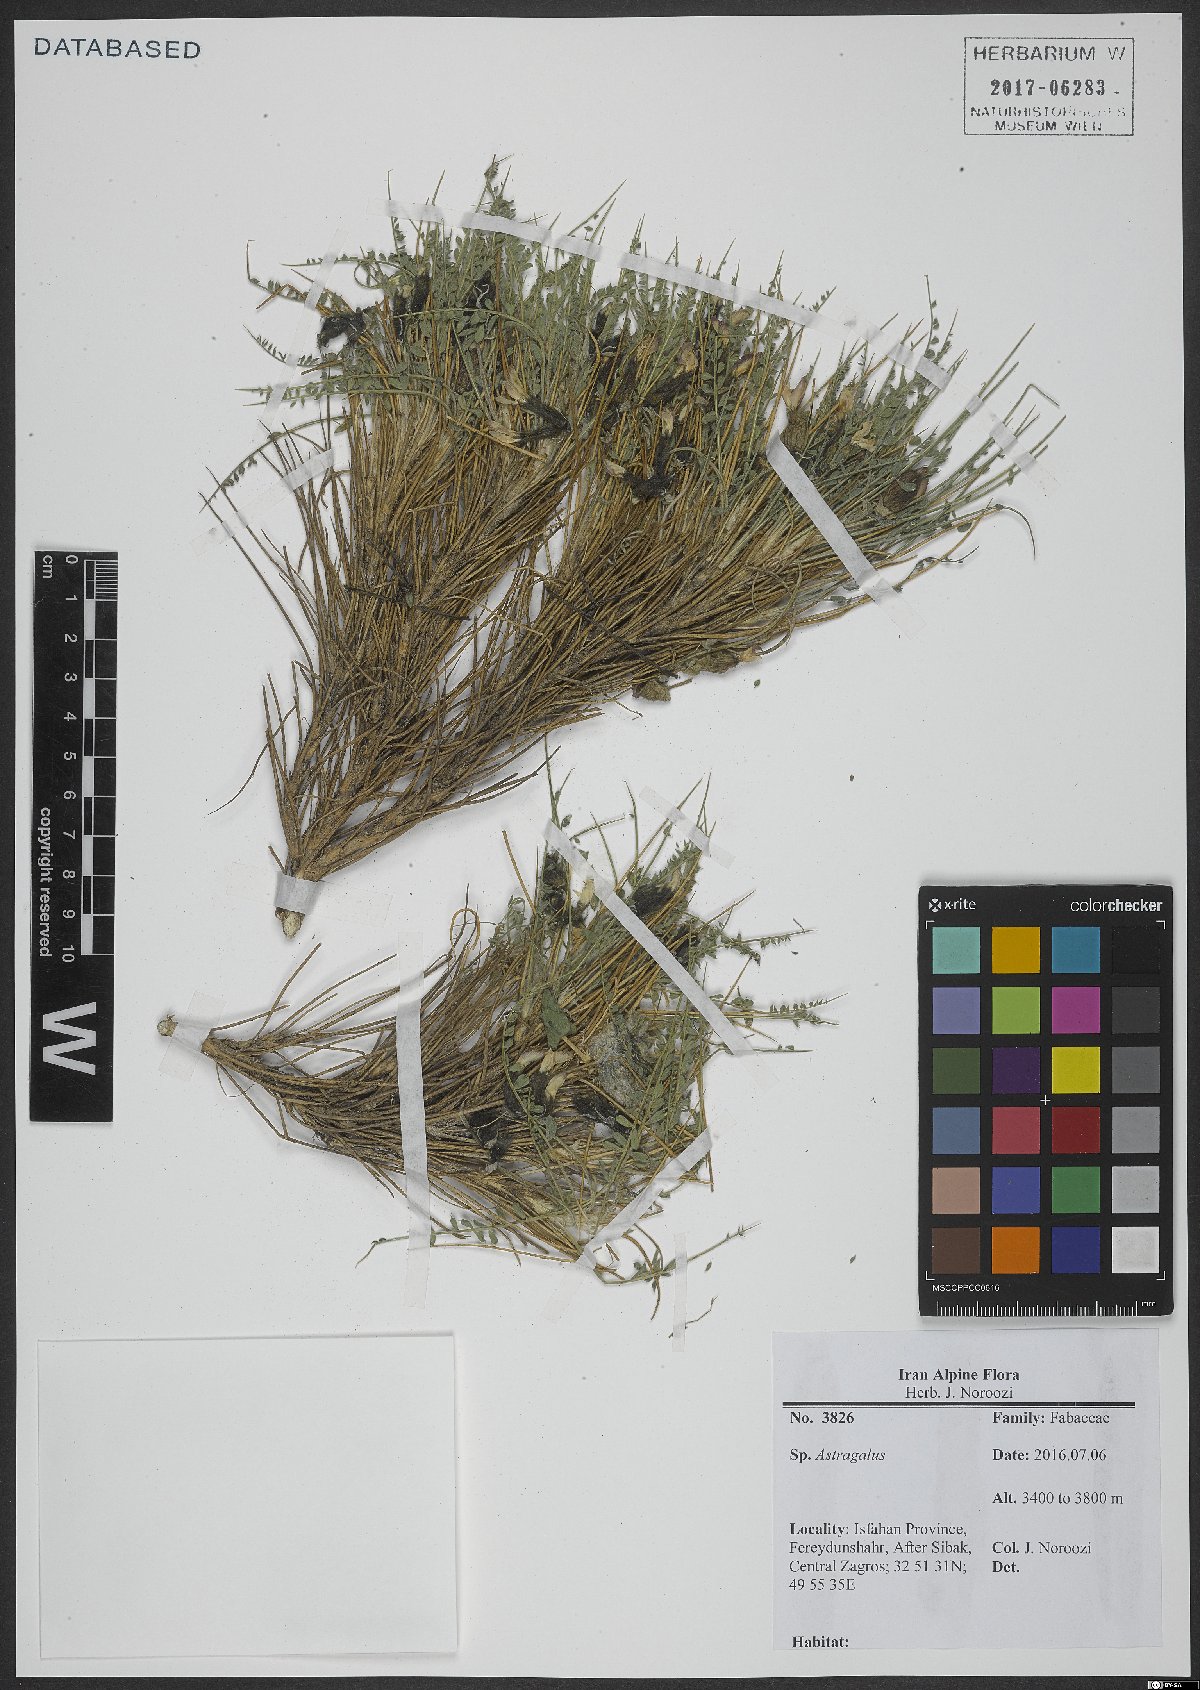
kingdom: Plantae
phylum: Tracheophyta
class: Magnoliopsida
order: Fabales
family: Fabaceae
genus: Astragalus
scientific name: Astragalus
